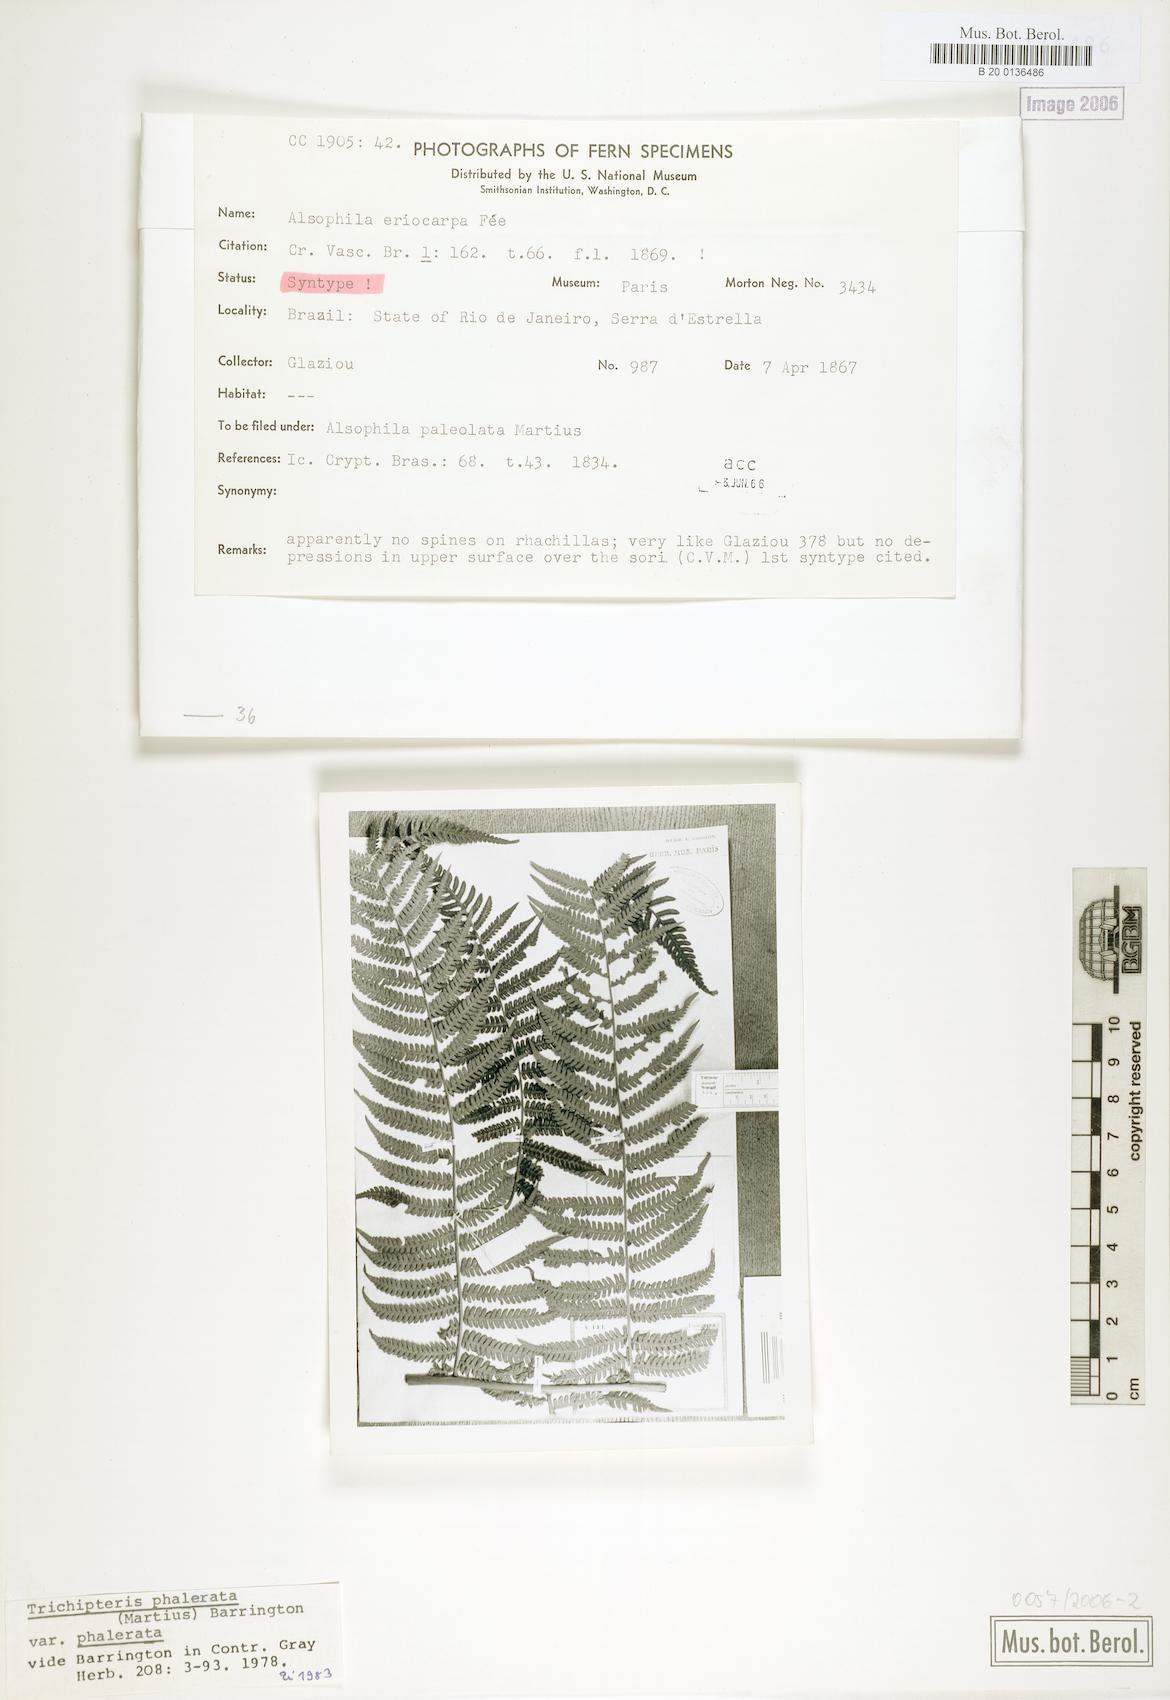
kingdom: Plantae
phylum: Tracheophyta
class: Polypodiopsida
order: Cyatheales
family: Cyatheaceae
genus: Cyathea
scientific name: Cyathea phalerata
